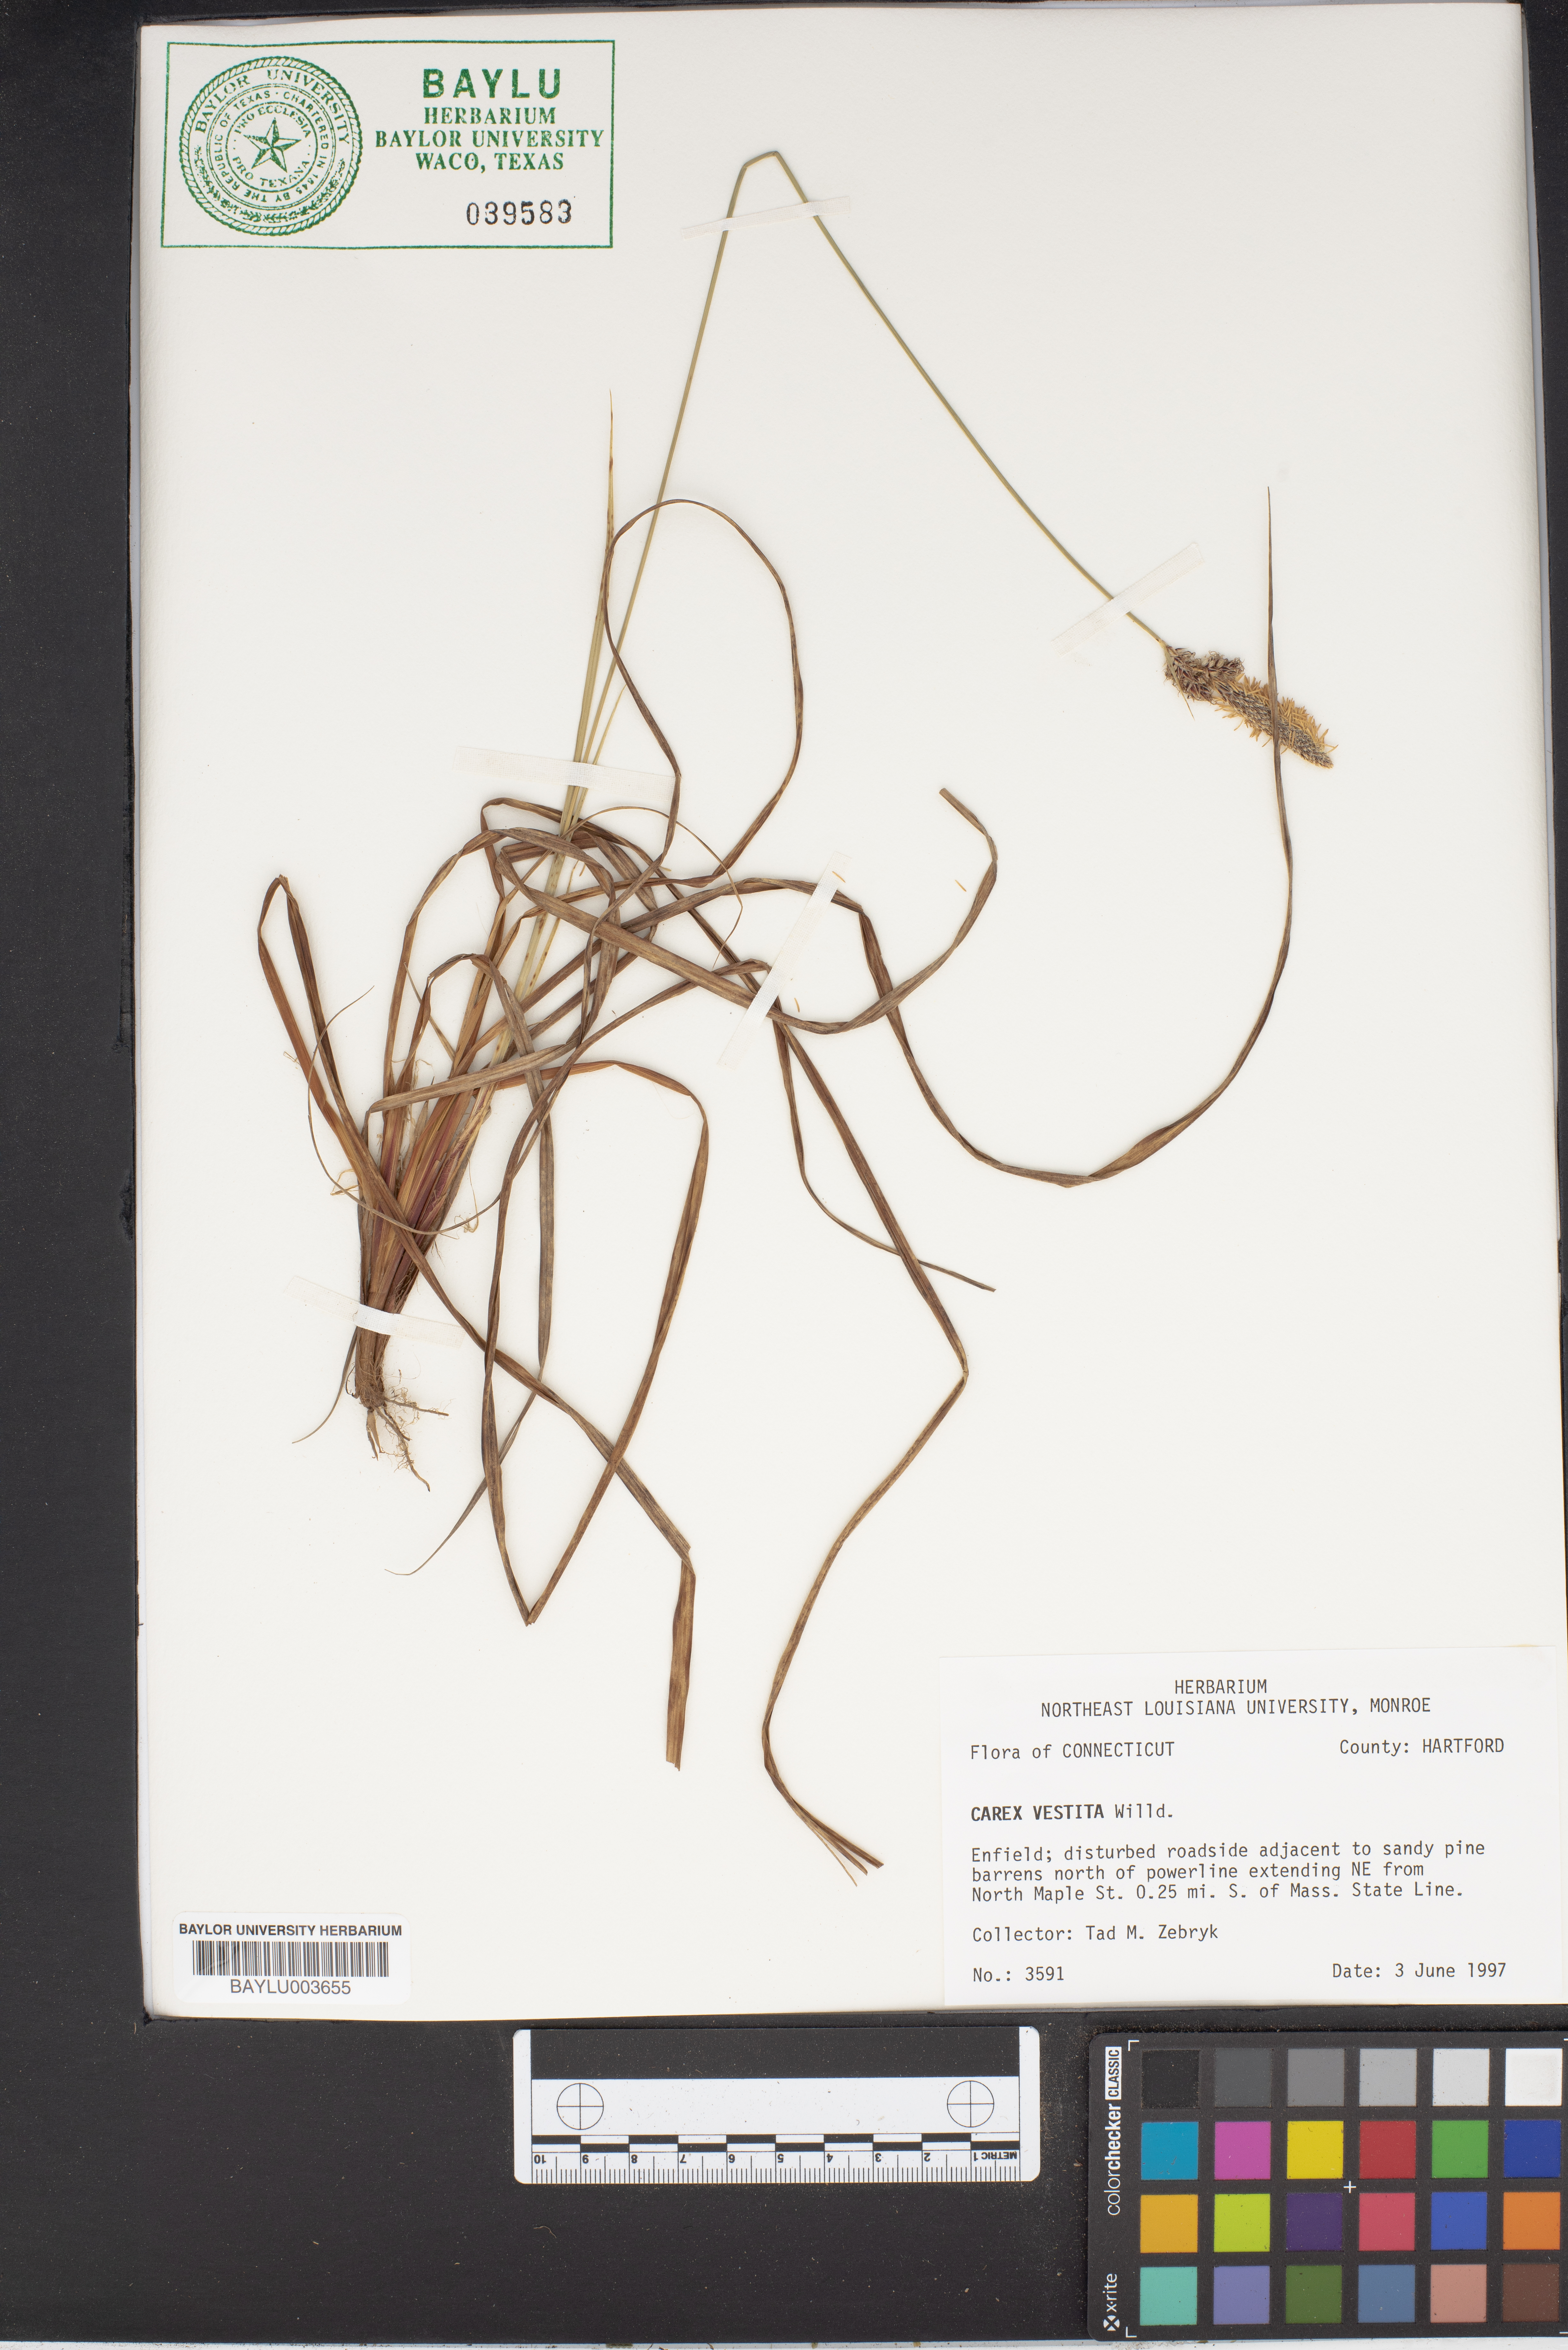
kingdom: Plantae
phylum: Tracheophyta
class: Liliopsida
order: Poales
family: Cyperaceae
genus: Carex
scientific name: Carex vestita
